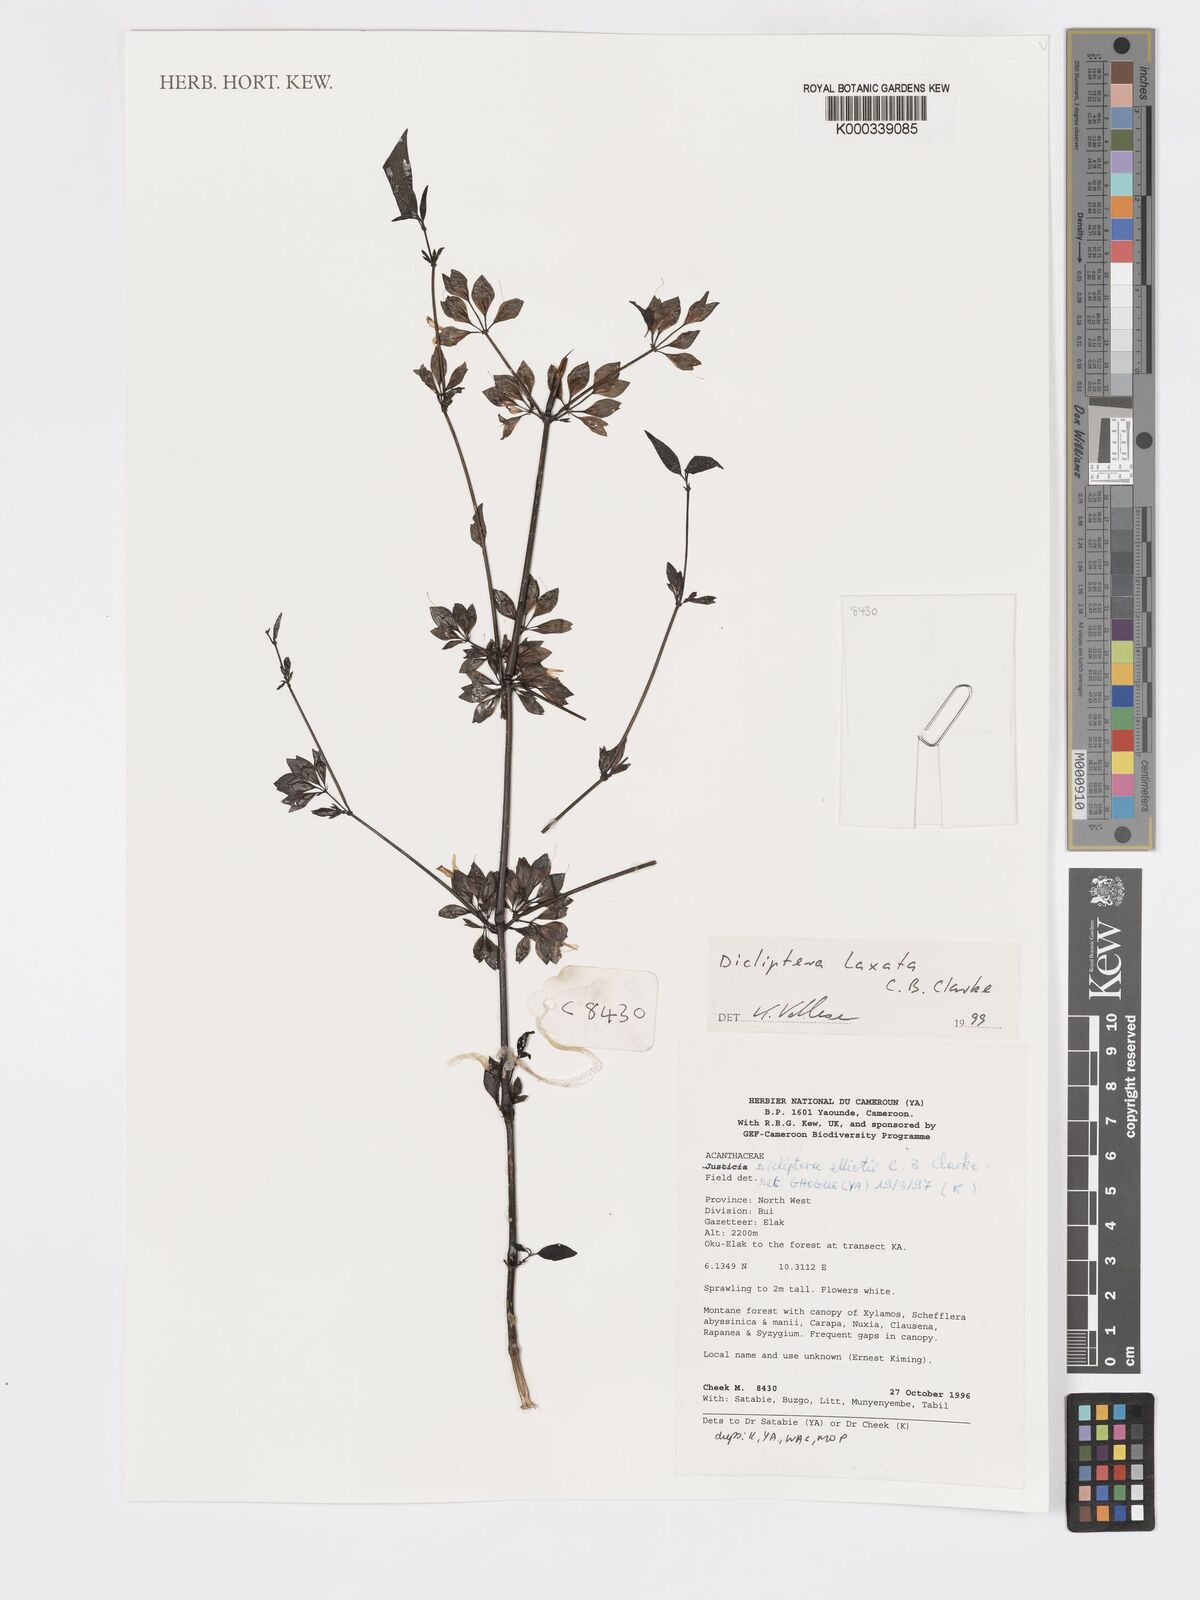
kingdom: Plantae
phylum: Tracheophyta
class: Magnoliopsida
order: Lamiales
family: Acanthaceae
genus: Dicliptera
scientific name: Dicliptera laxata
